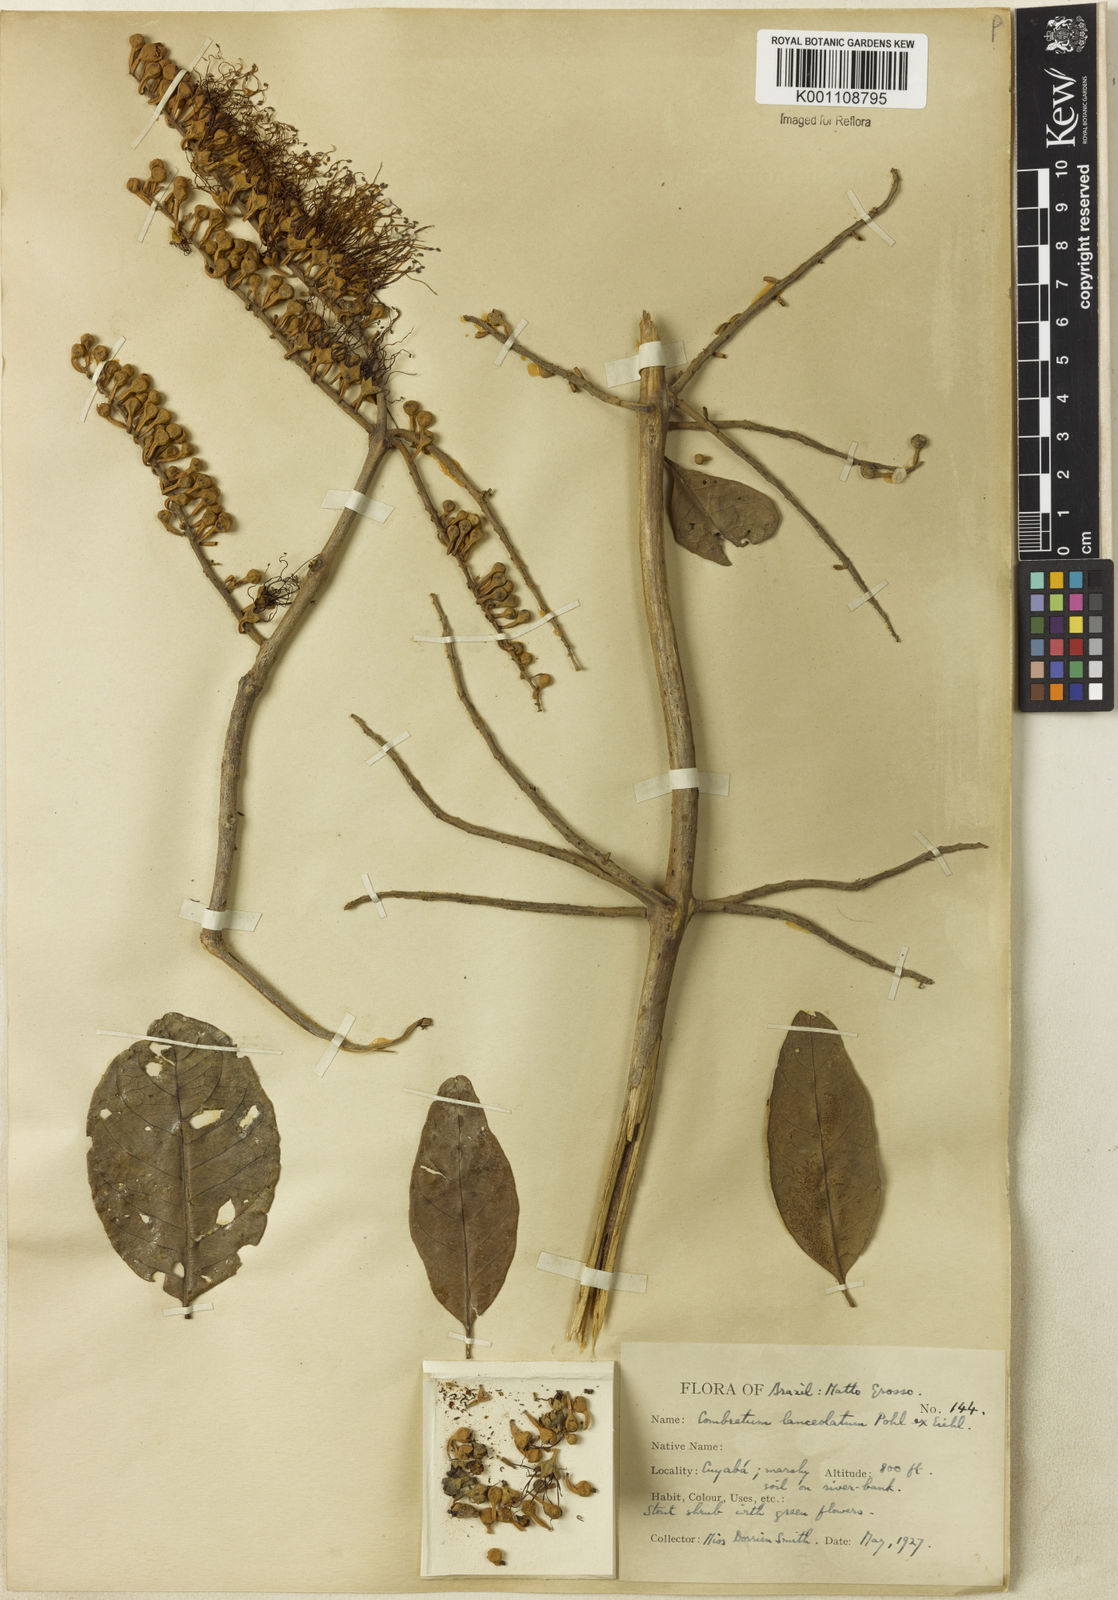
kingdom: Plantae
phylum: Tracheophyta
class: Magnoliopsida
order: Myrtales
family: Combretaceae
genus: Combretum
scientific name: Combretum lanceolatum
